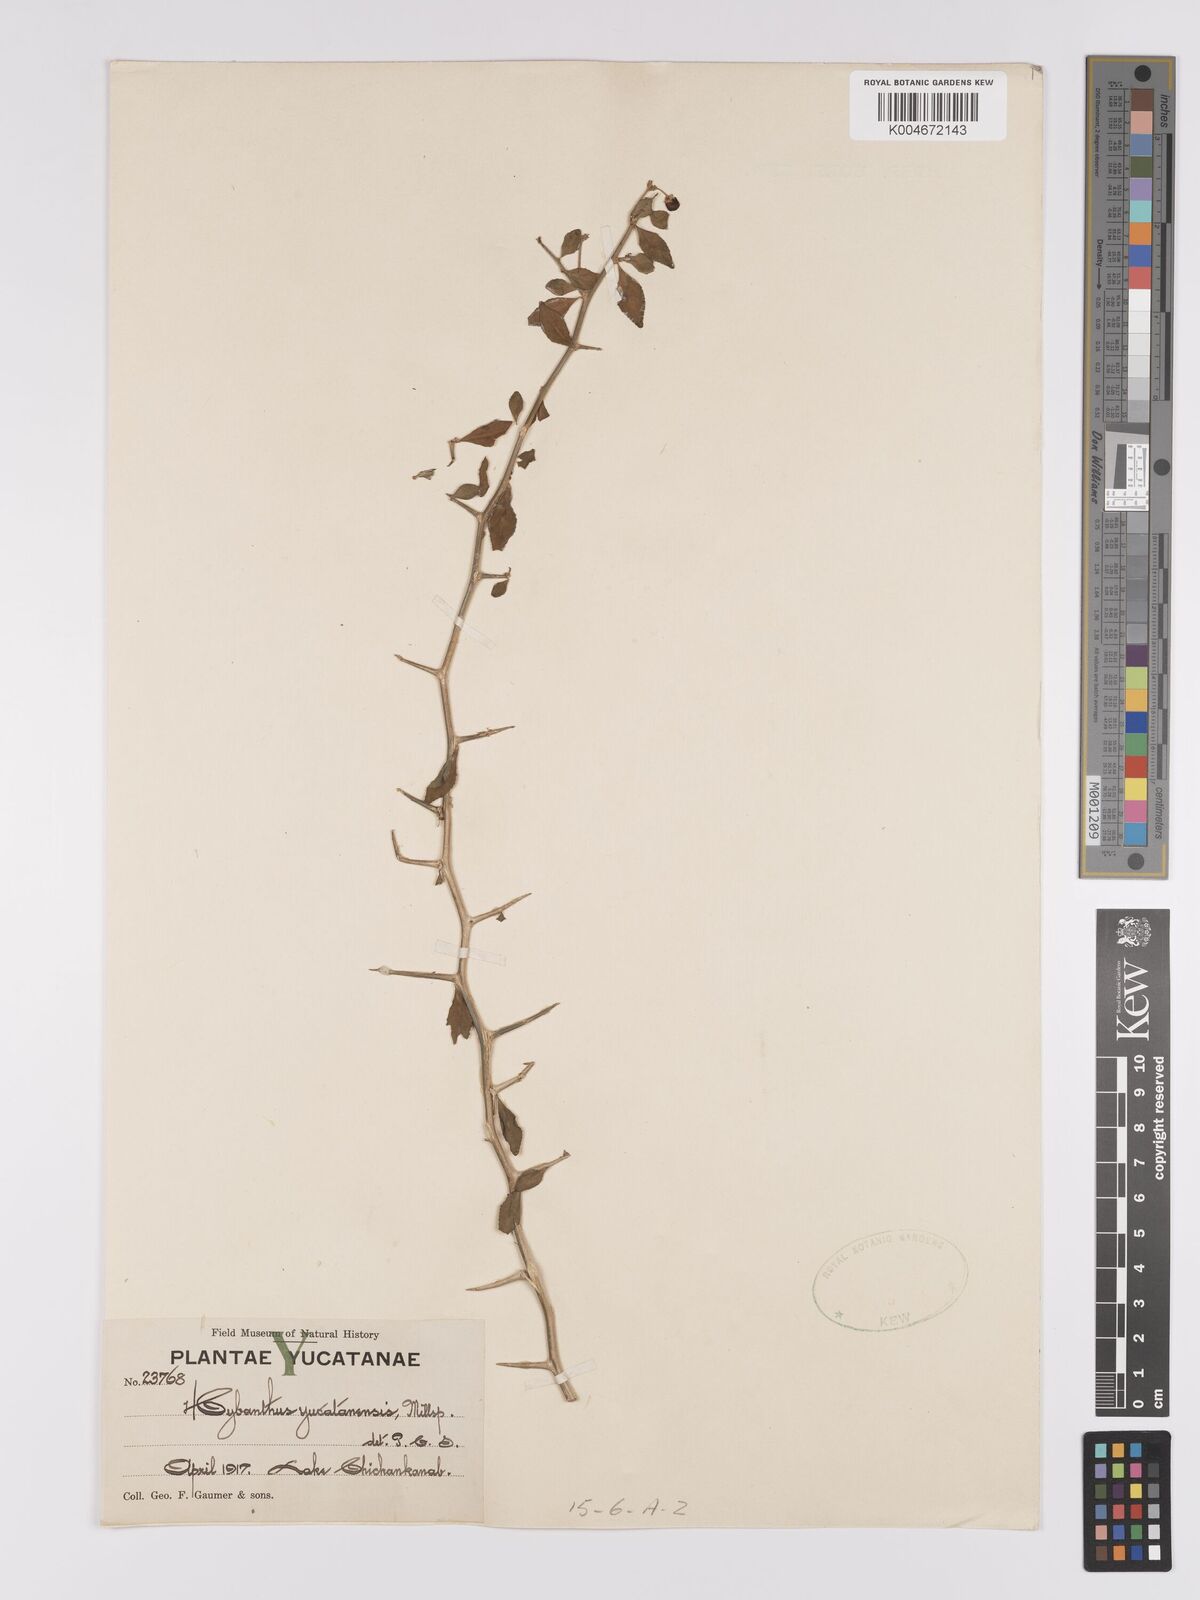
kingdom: Plantae
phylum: Tracheophyta
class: Magnoliopsida
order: Malpighiales
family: Violaceae
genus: Hybanthus
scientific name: Hybanthus yucatanensis
